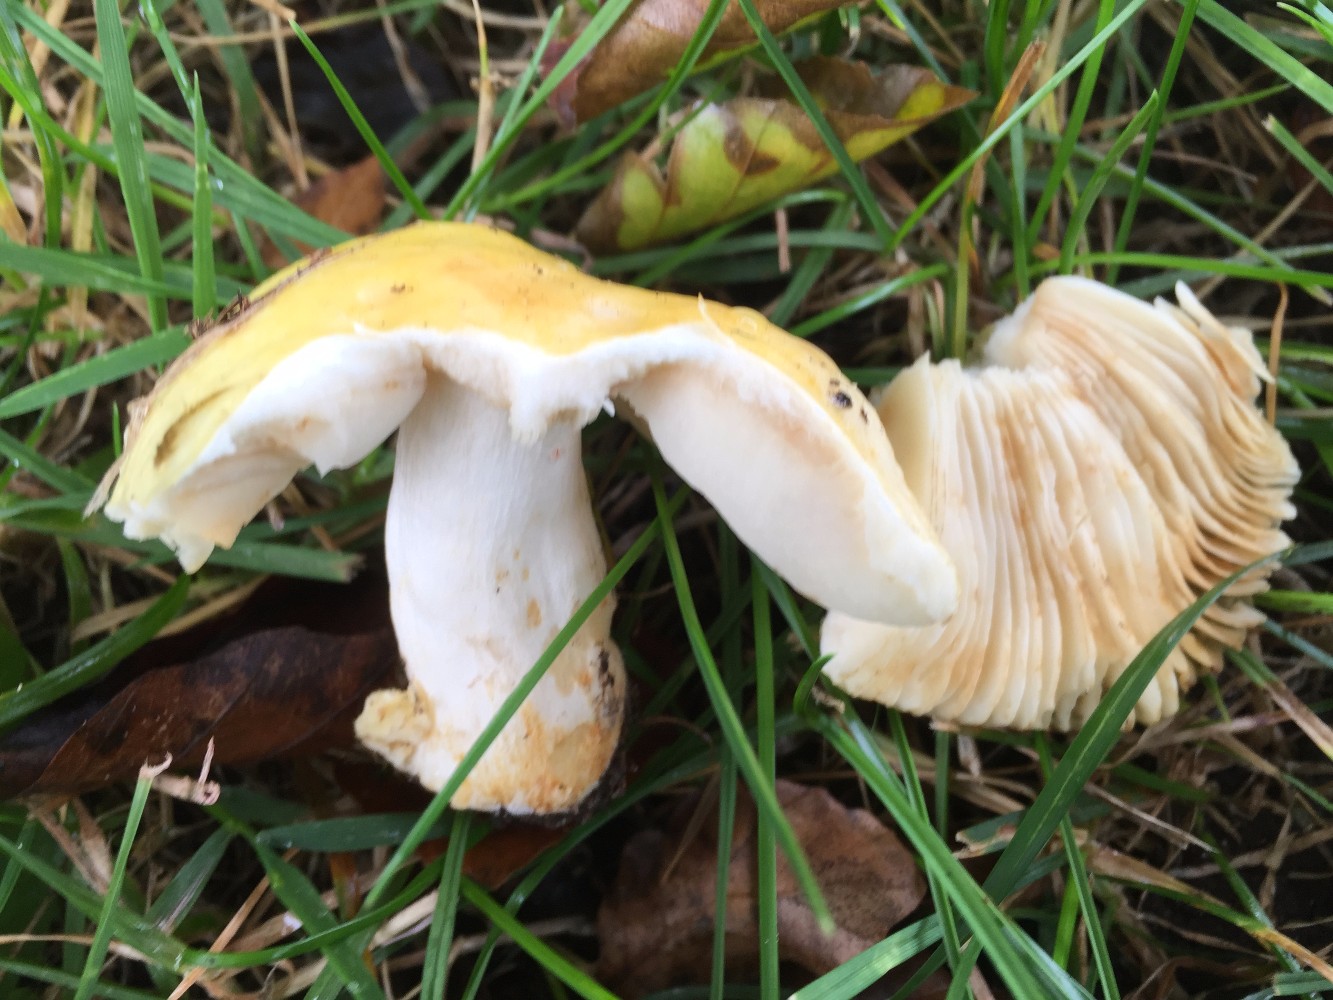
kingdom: Fungi
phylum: Basidiomycota
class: Agaricomycetes
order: Russulales
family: Russulaceae
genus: Russula
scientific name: Russula solaris
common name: sol-skørhat
